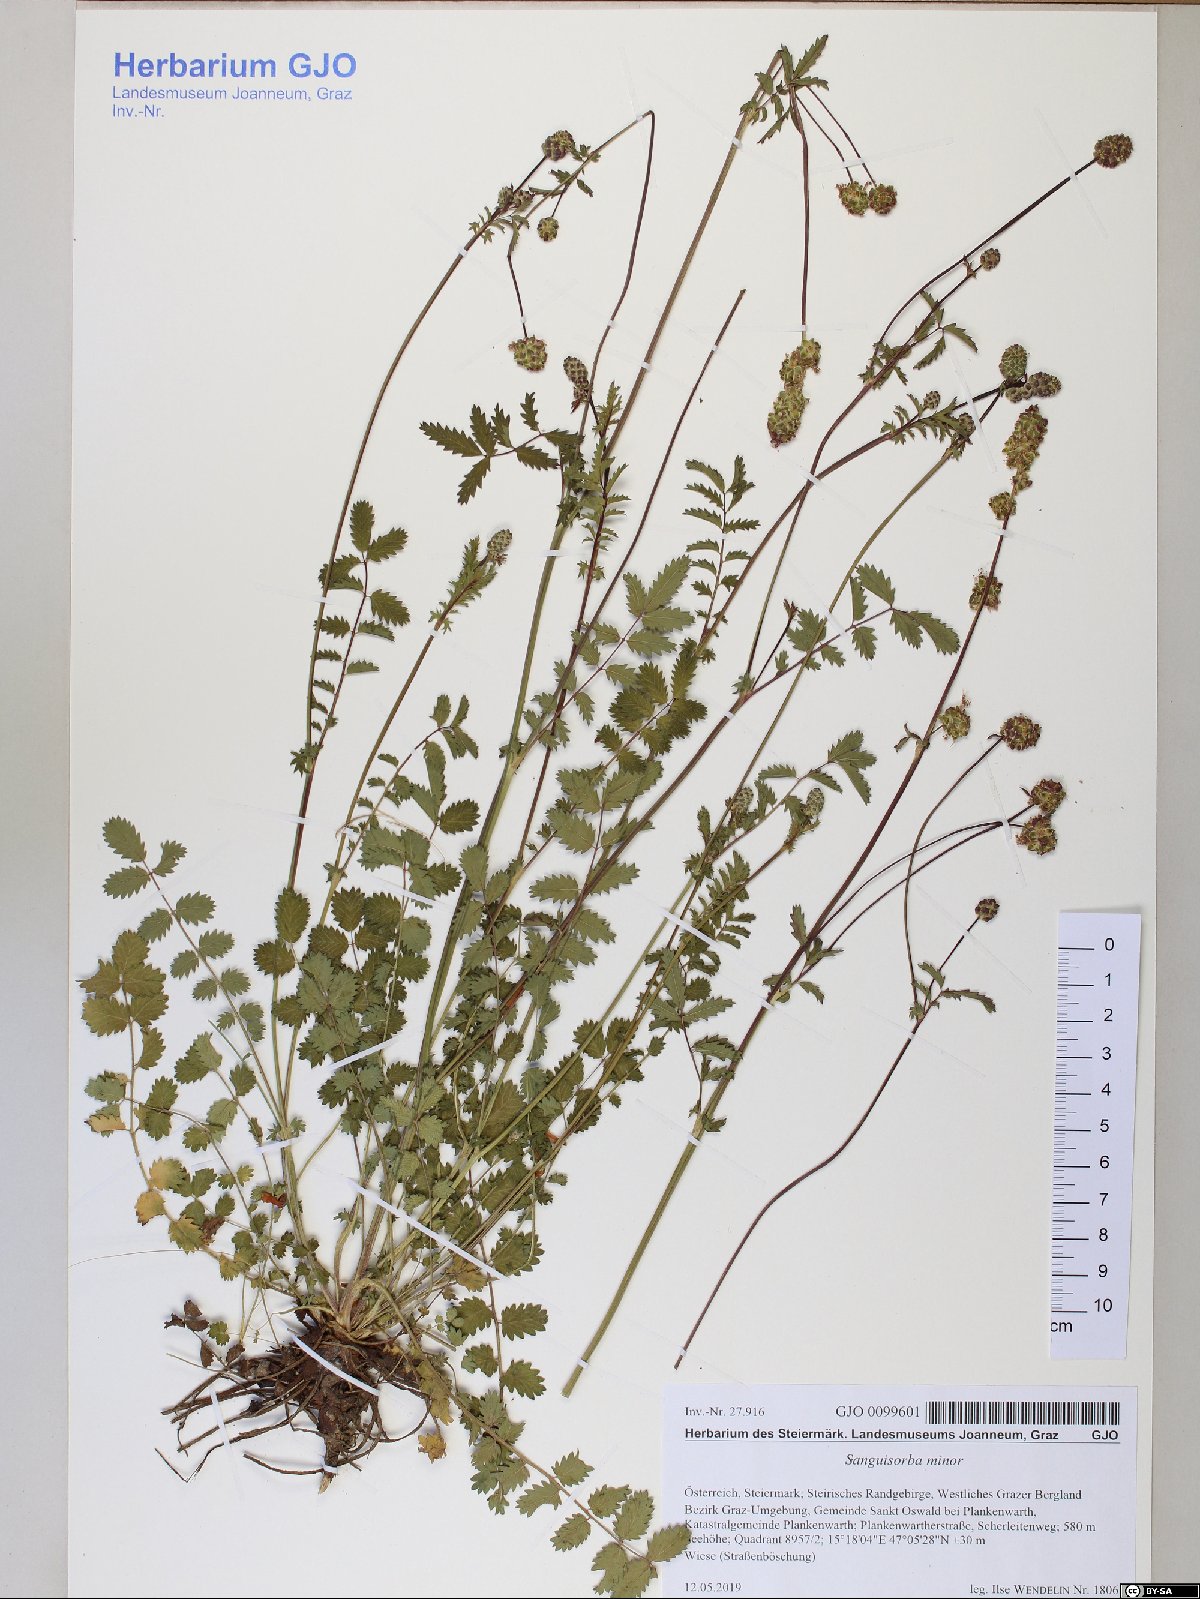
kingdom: Plantae
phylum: Tracheophyta
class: Magnoliopsida
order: Rosales
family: Rosaceae
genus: Poterium
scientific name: Poterium sanguisorba
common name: Salad burnet
